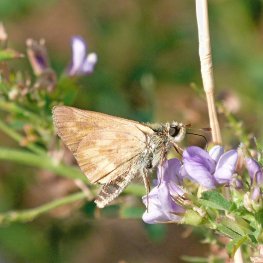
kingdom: Animalia
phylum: Arthropoda
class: Insecta
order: Lepidoptera
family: Hesperiidae
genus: Ochlodes
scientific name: Ochlodes sylvanoides
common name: Woodland Skipper
